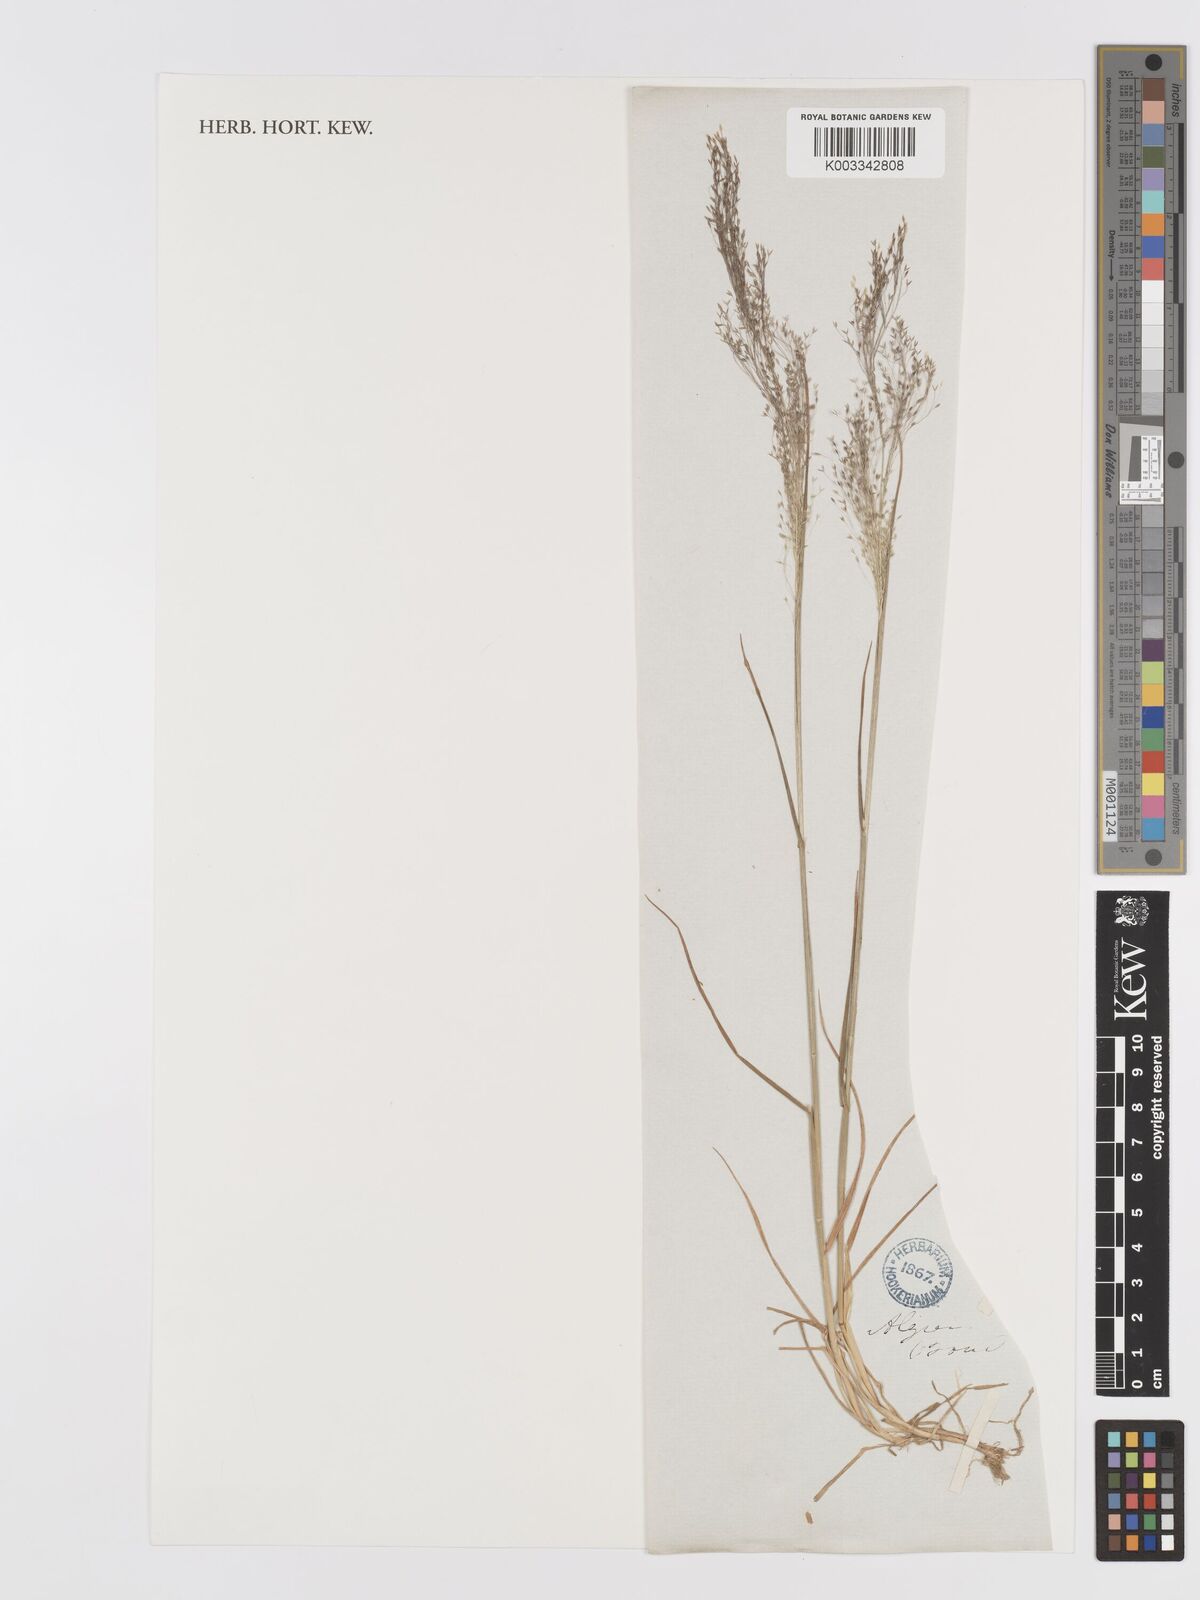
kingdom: Plantae
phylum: Tracheophyta
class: Liliopsida
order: Poales
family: Poaceae
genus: Agrostis
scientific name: Agrostis reuteri
